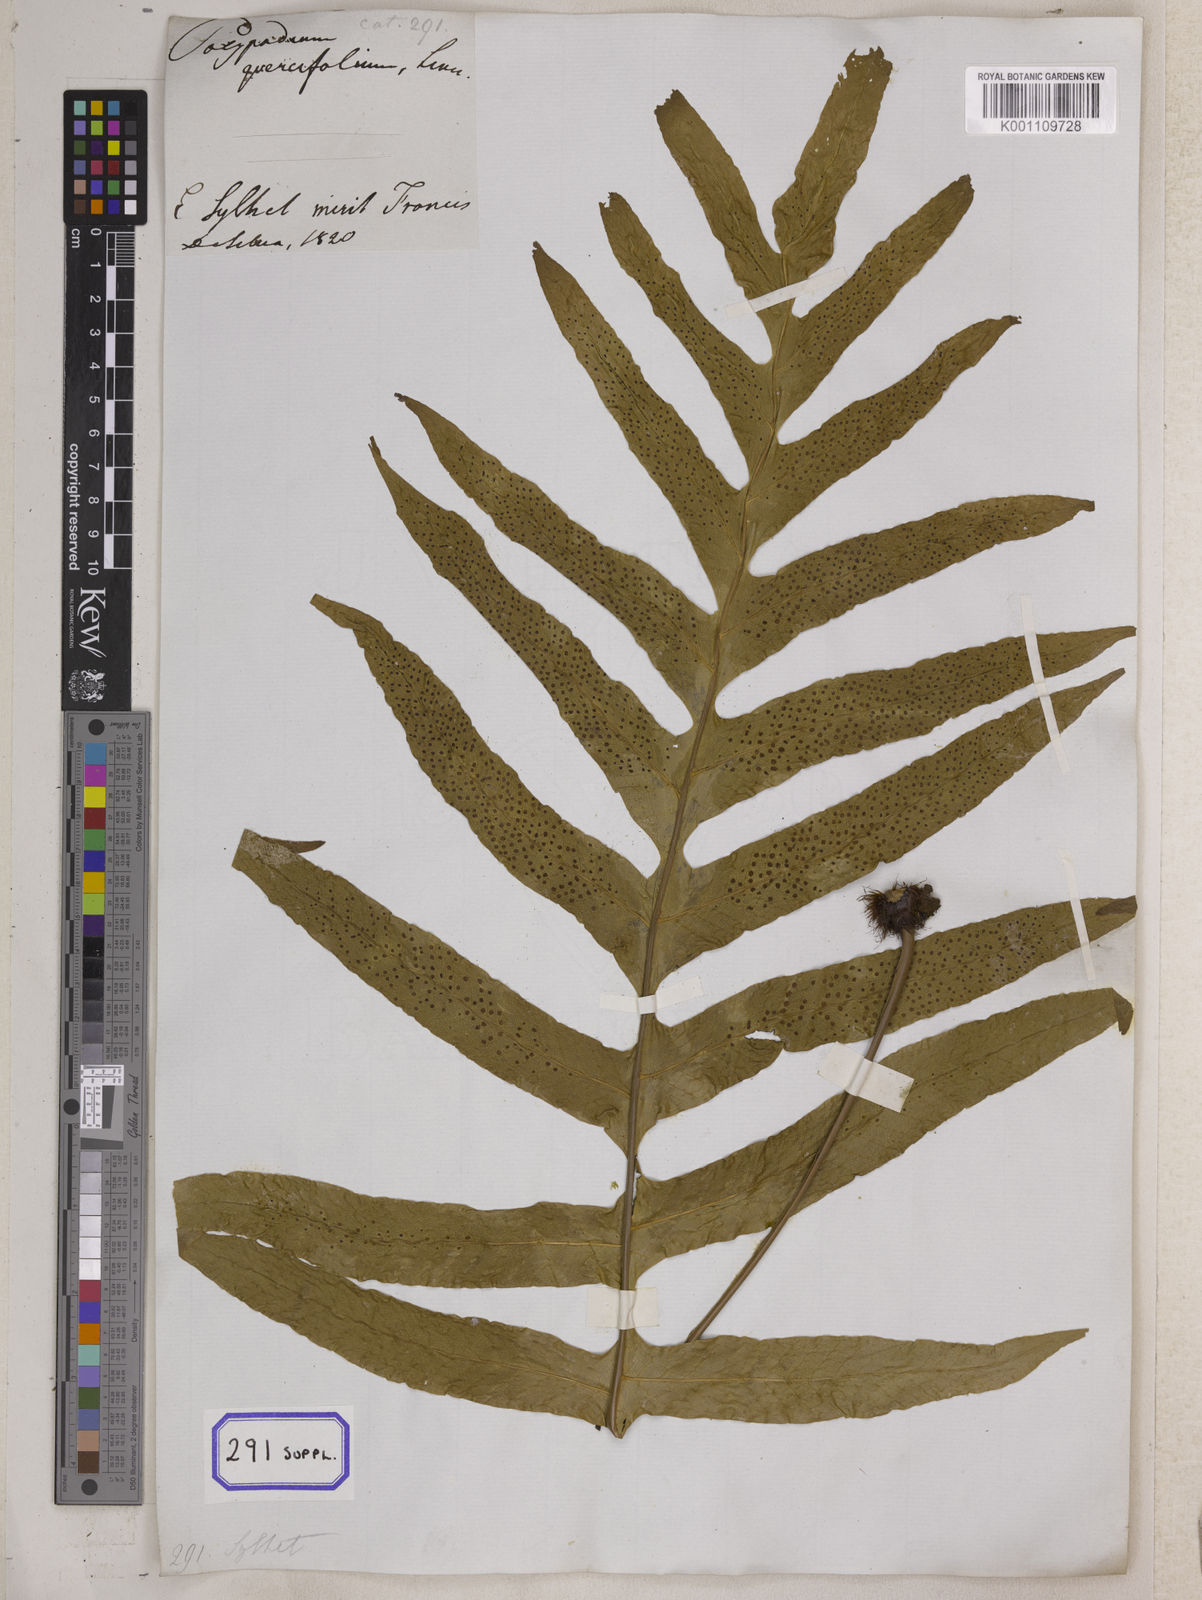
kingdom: Plantae
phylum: Tracheophyta
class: Polypodiopsida
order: Polypodiales
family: Polypodiaceae
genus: Drynaria
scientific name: Drynaria quercifolia
